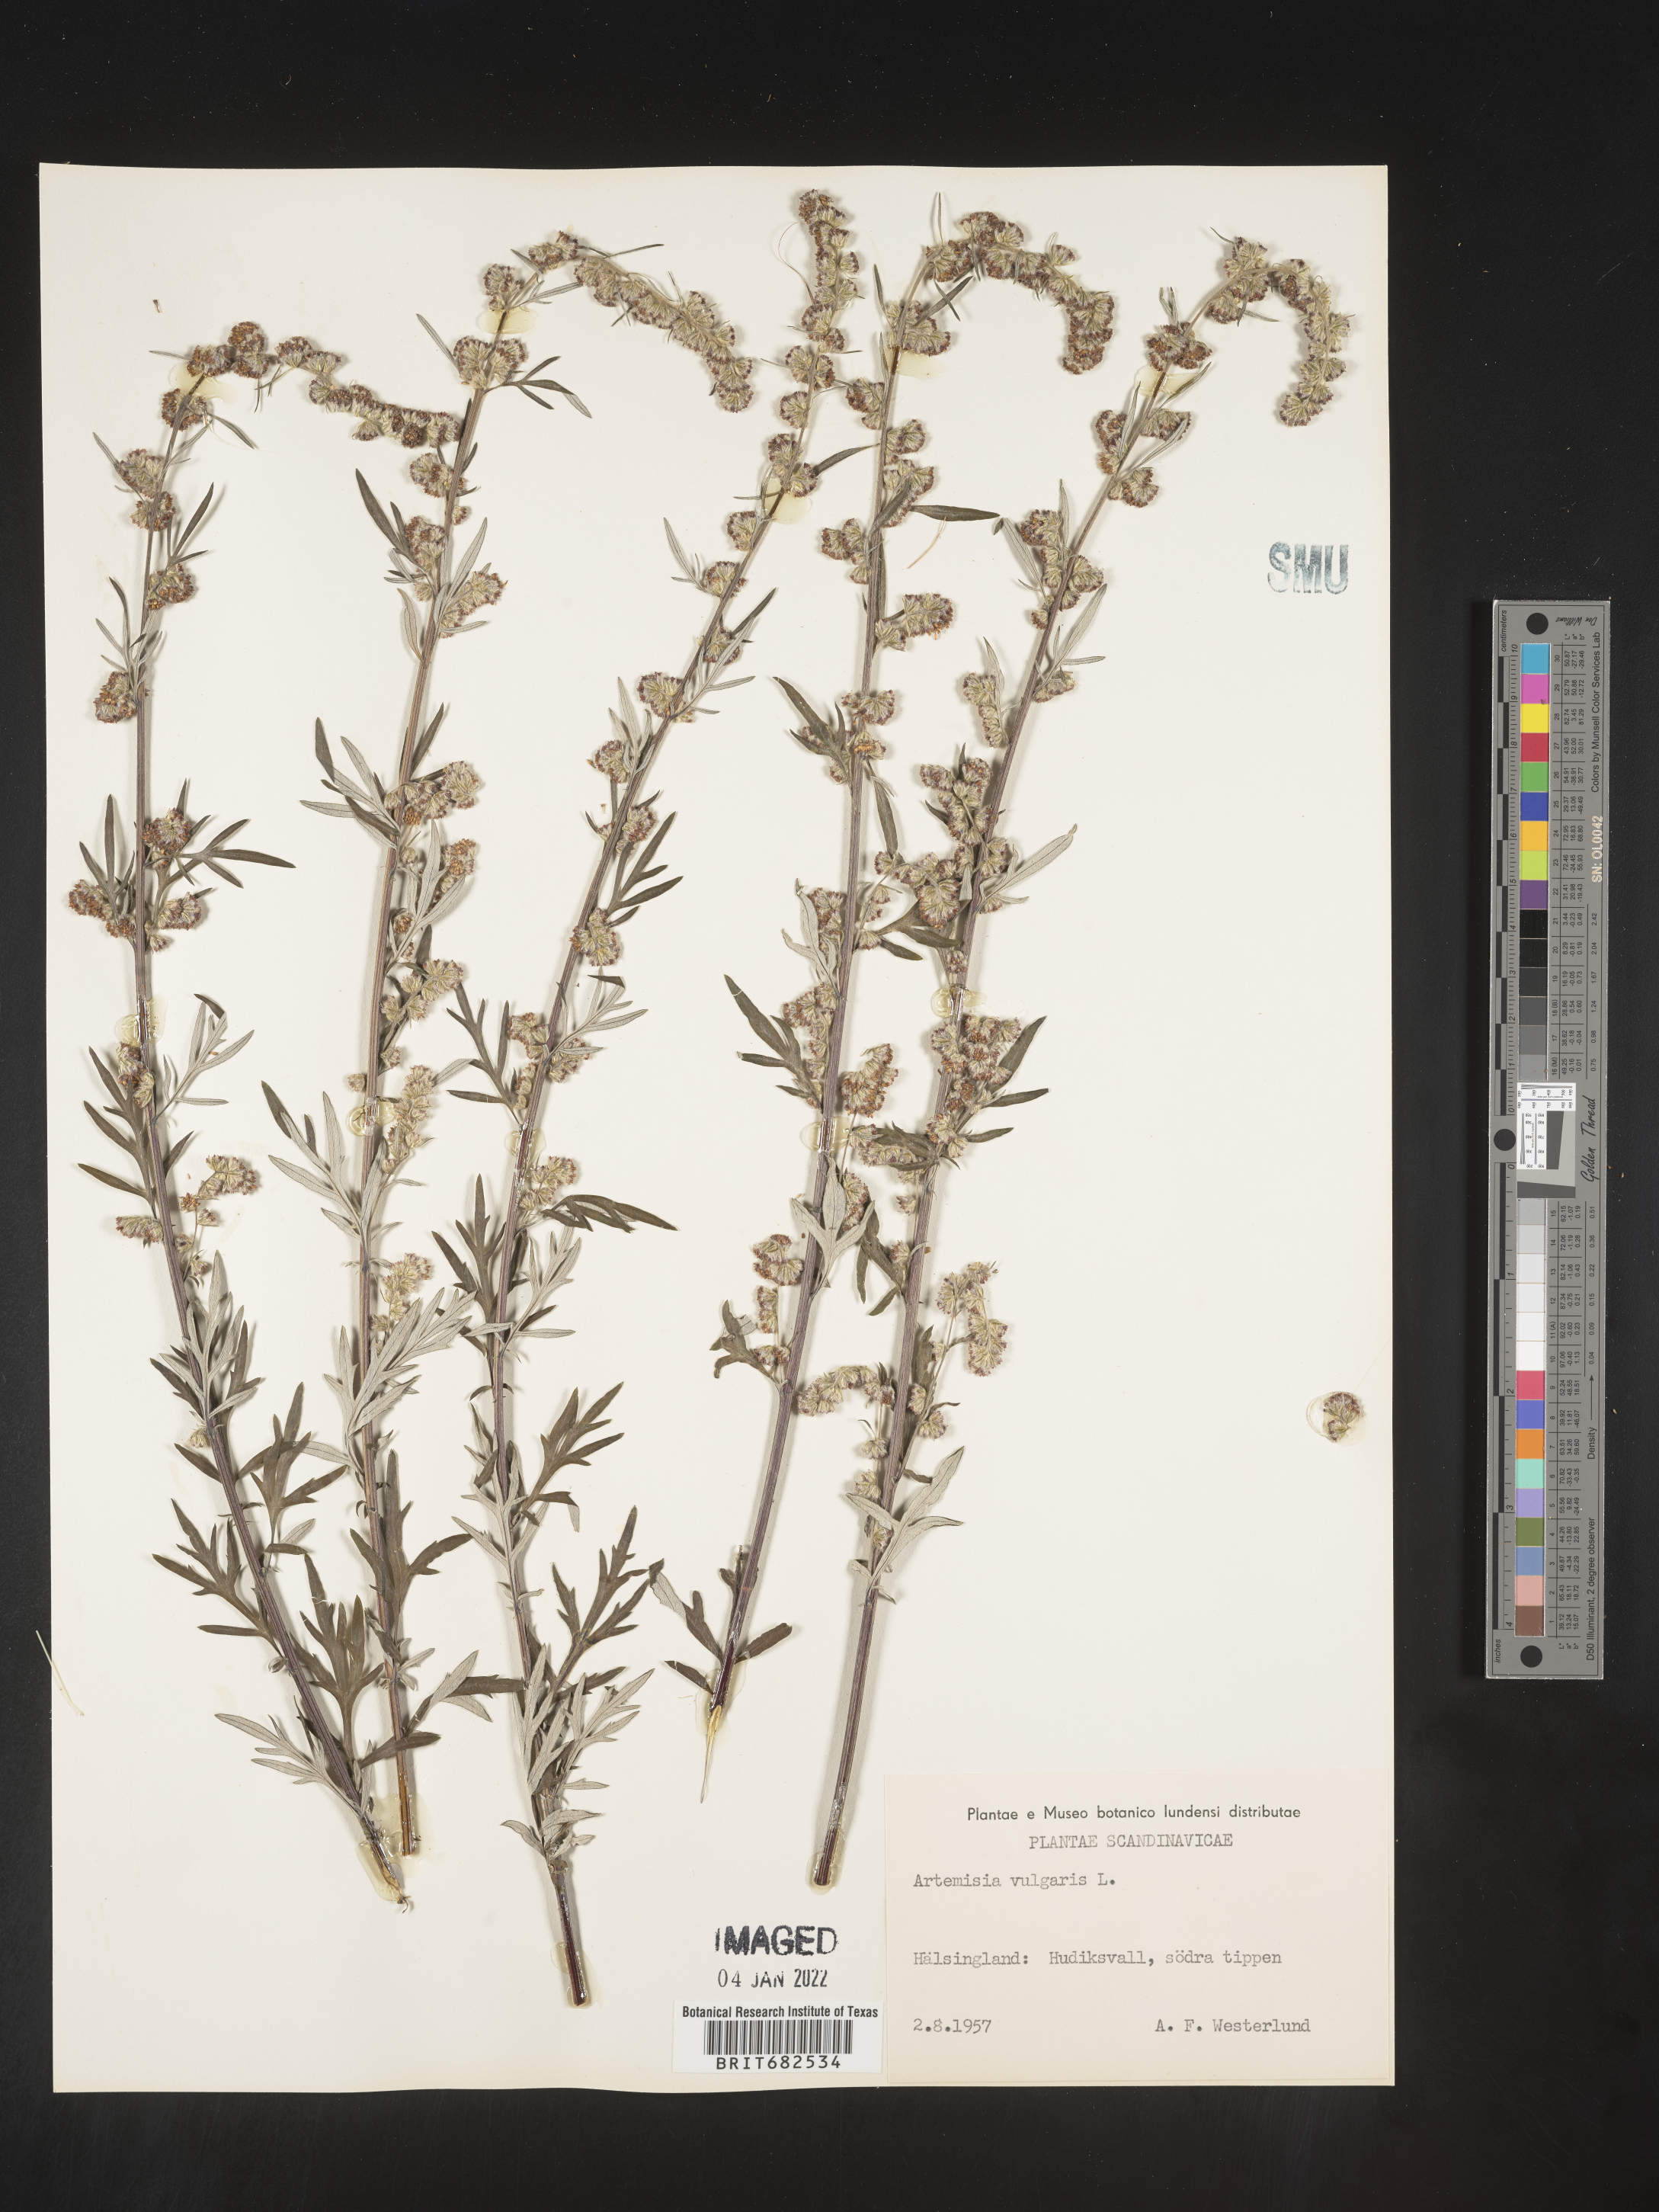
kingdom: Plantae
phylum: Tracheophyta
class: Magnoliopsida
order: Asterales
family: Asteraceae
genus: Artemisia
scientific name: Artemisia
